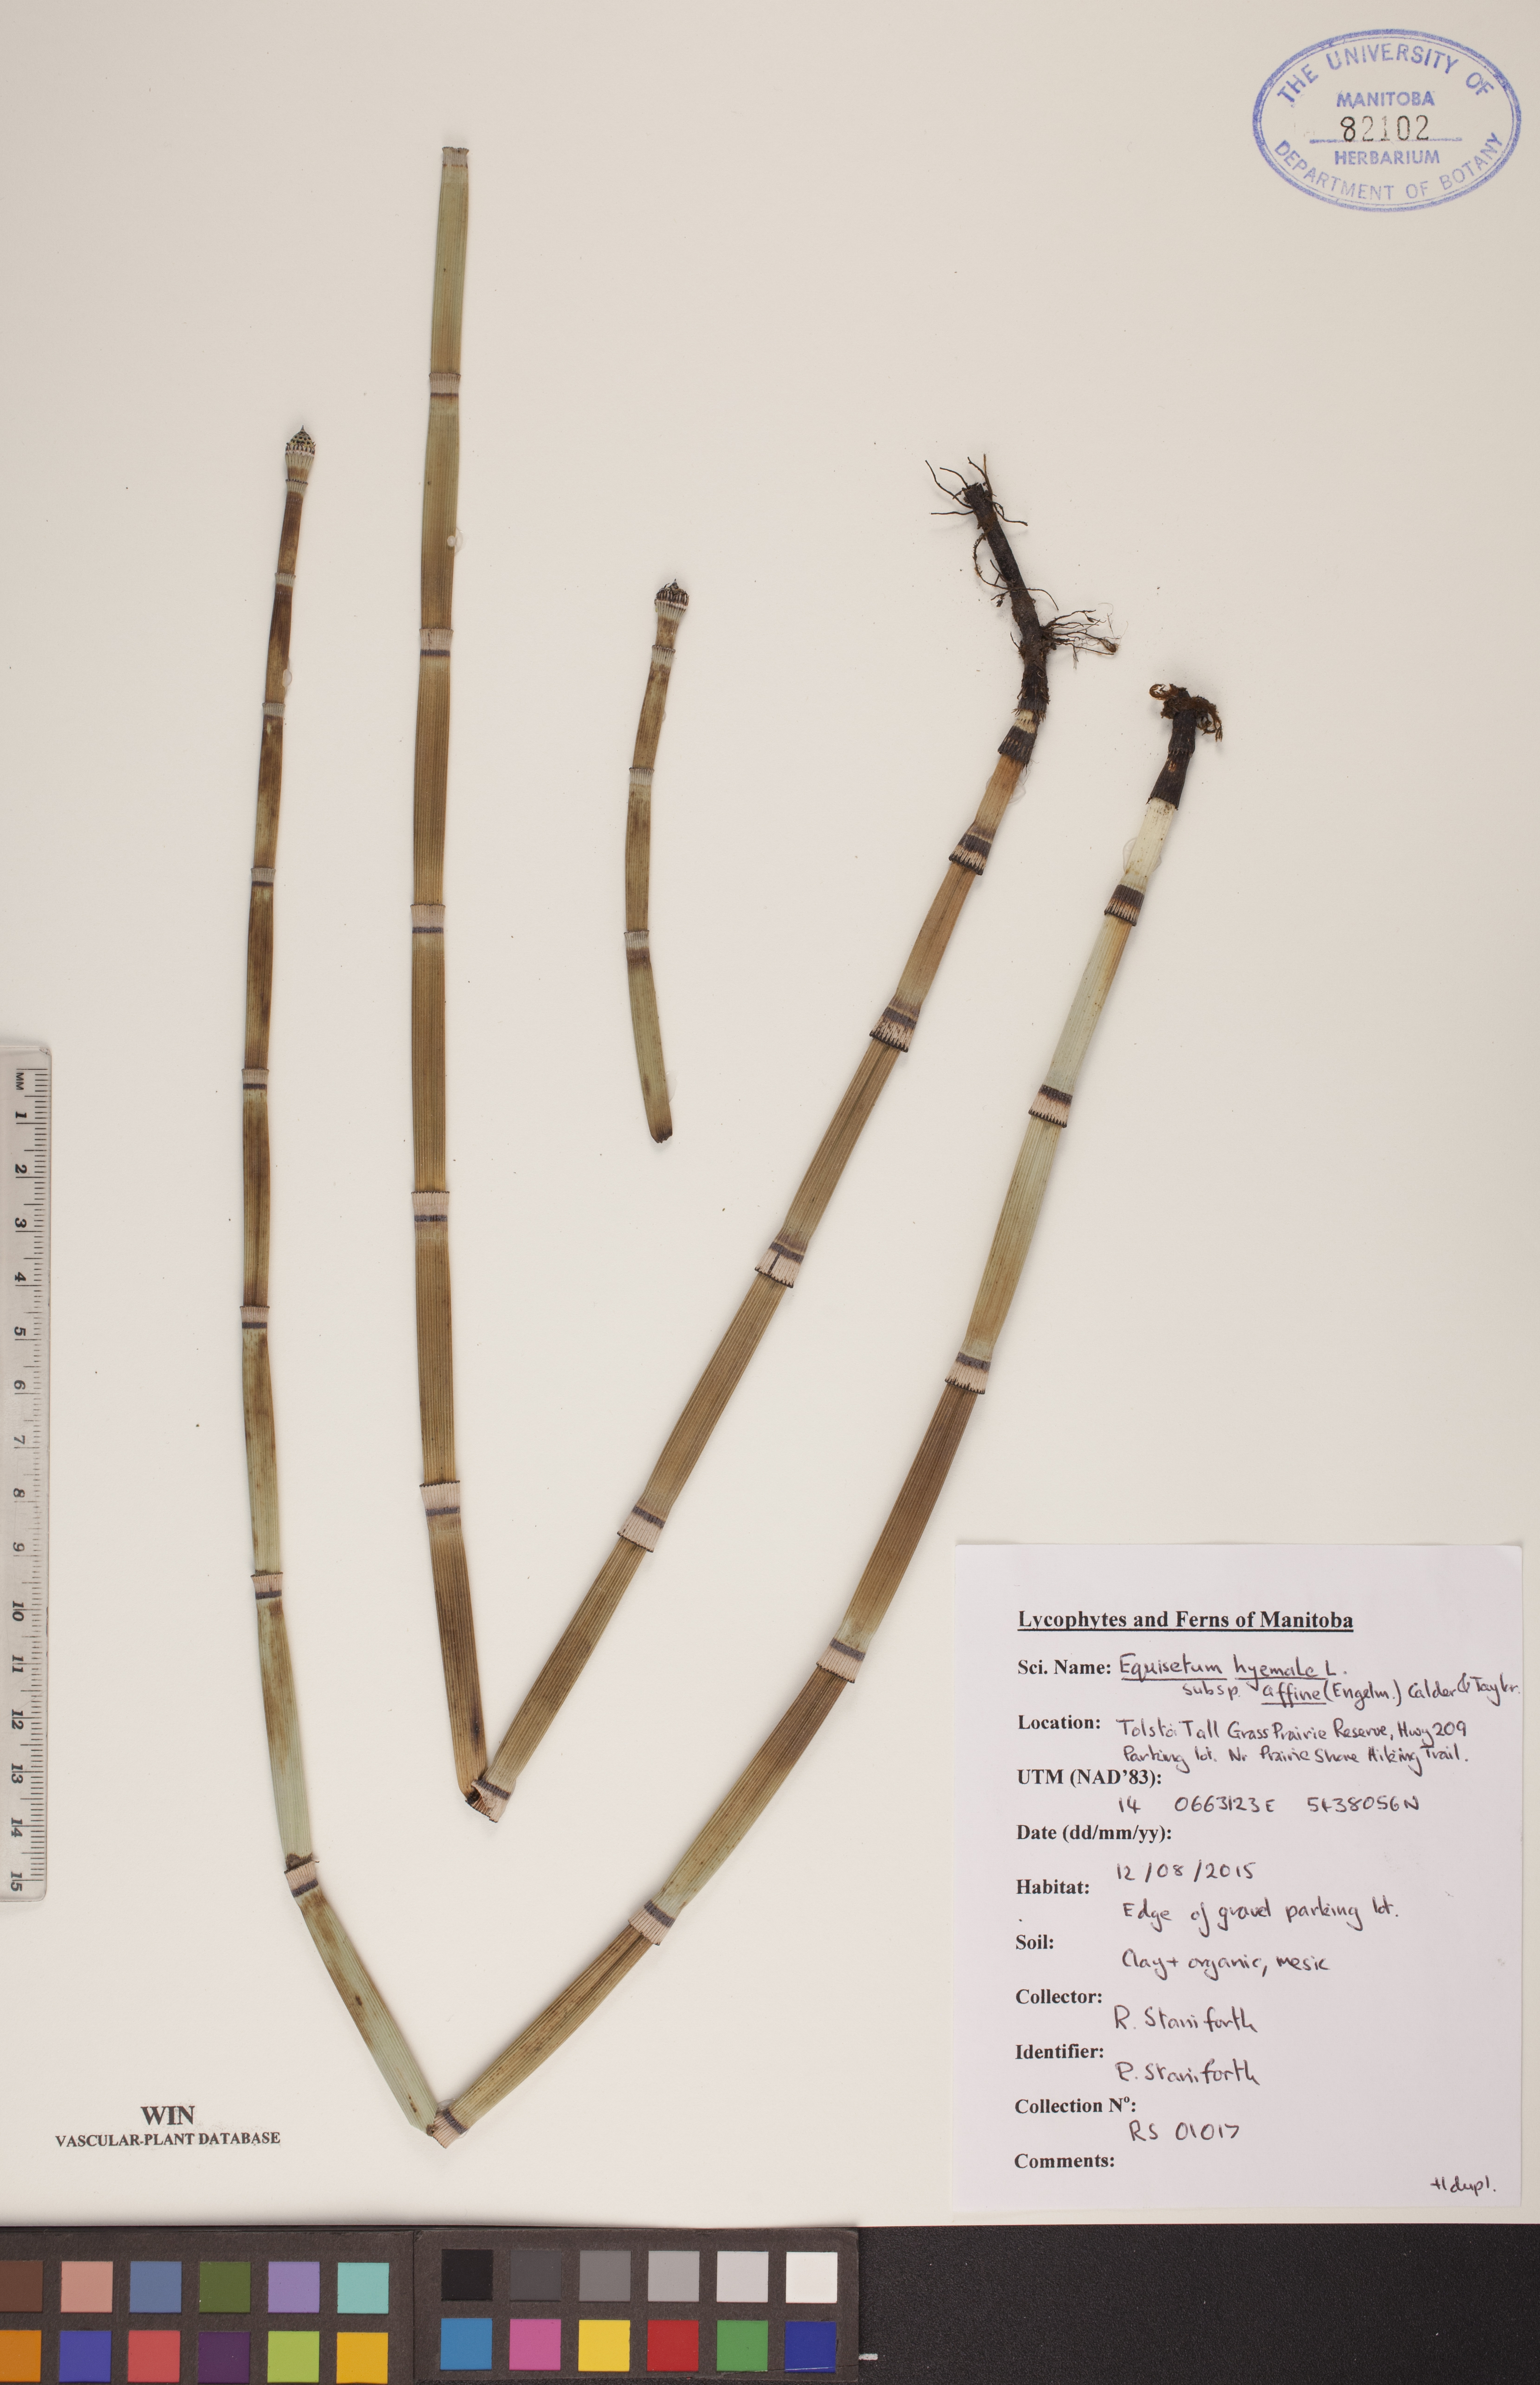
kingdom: Plantae
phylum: Tracheophyta
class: Polypodiopsida
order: Equisetales
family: Equisetaceae
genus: Equisetum
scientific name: Equisetum praealtum
